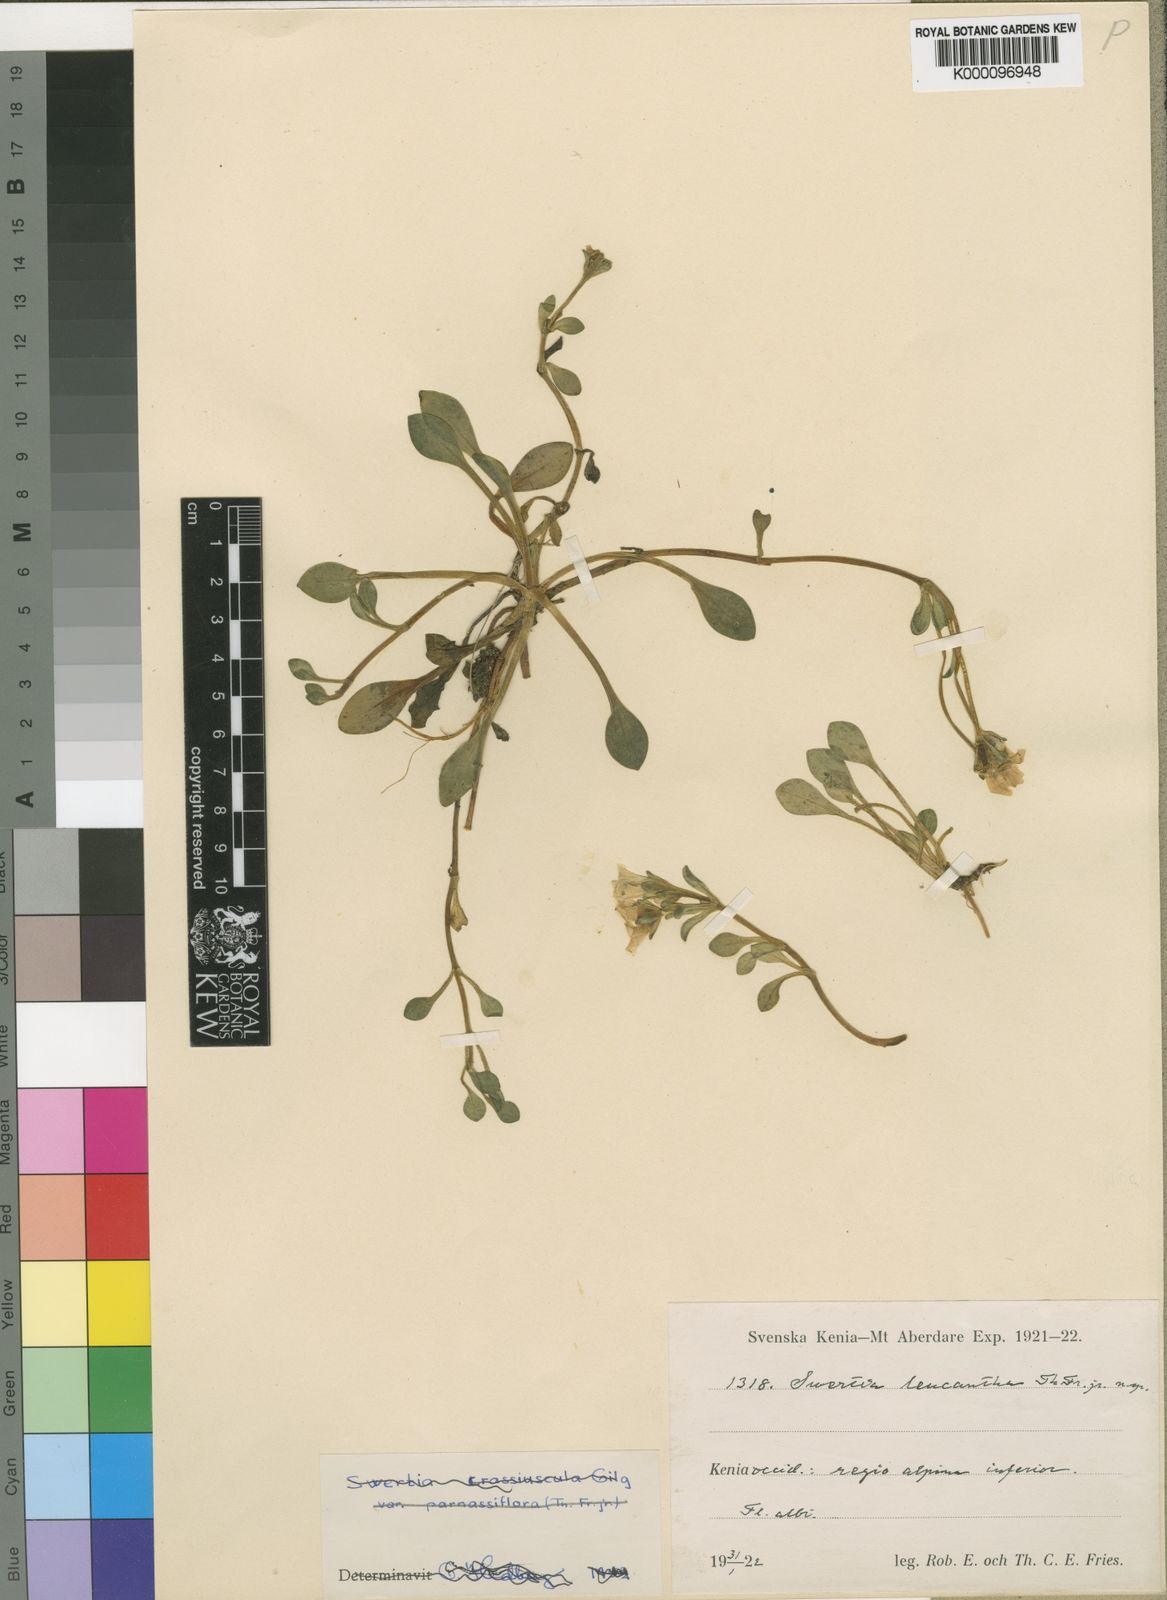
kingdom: Plantae
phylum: Tracheophyta
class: Magnoliopsida
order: Gentianales
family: Gentianaceae
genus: Swertia
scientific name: Swertia crassiuscula
